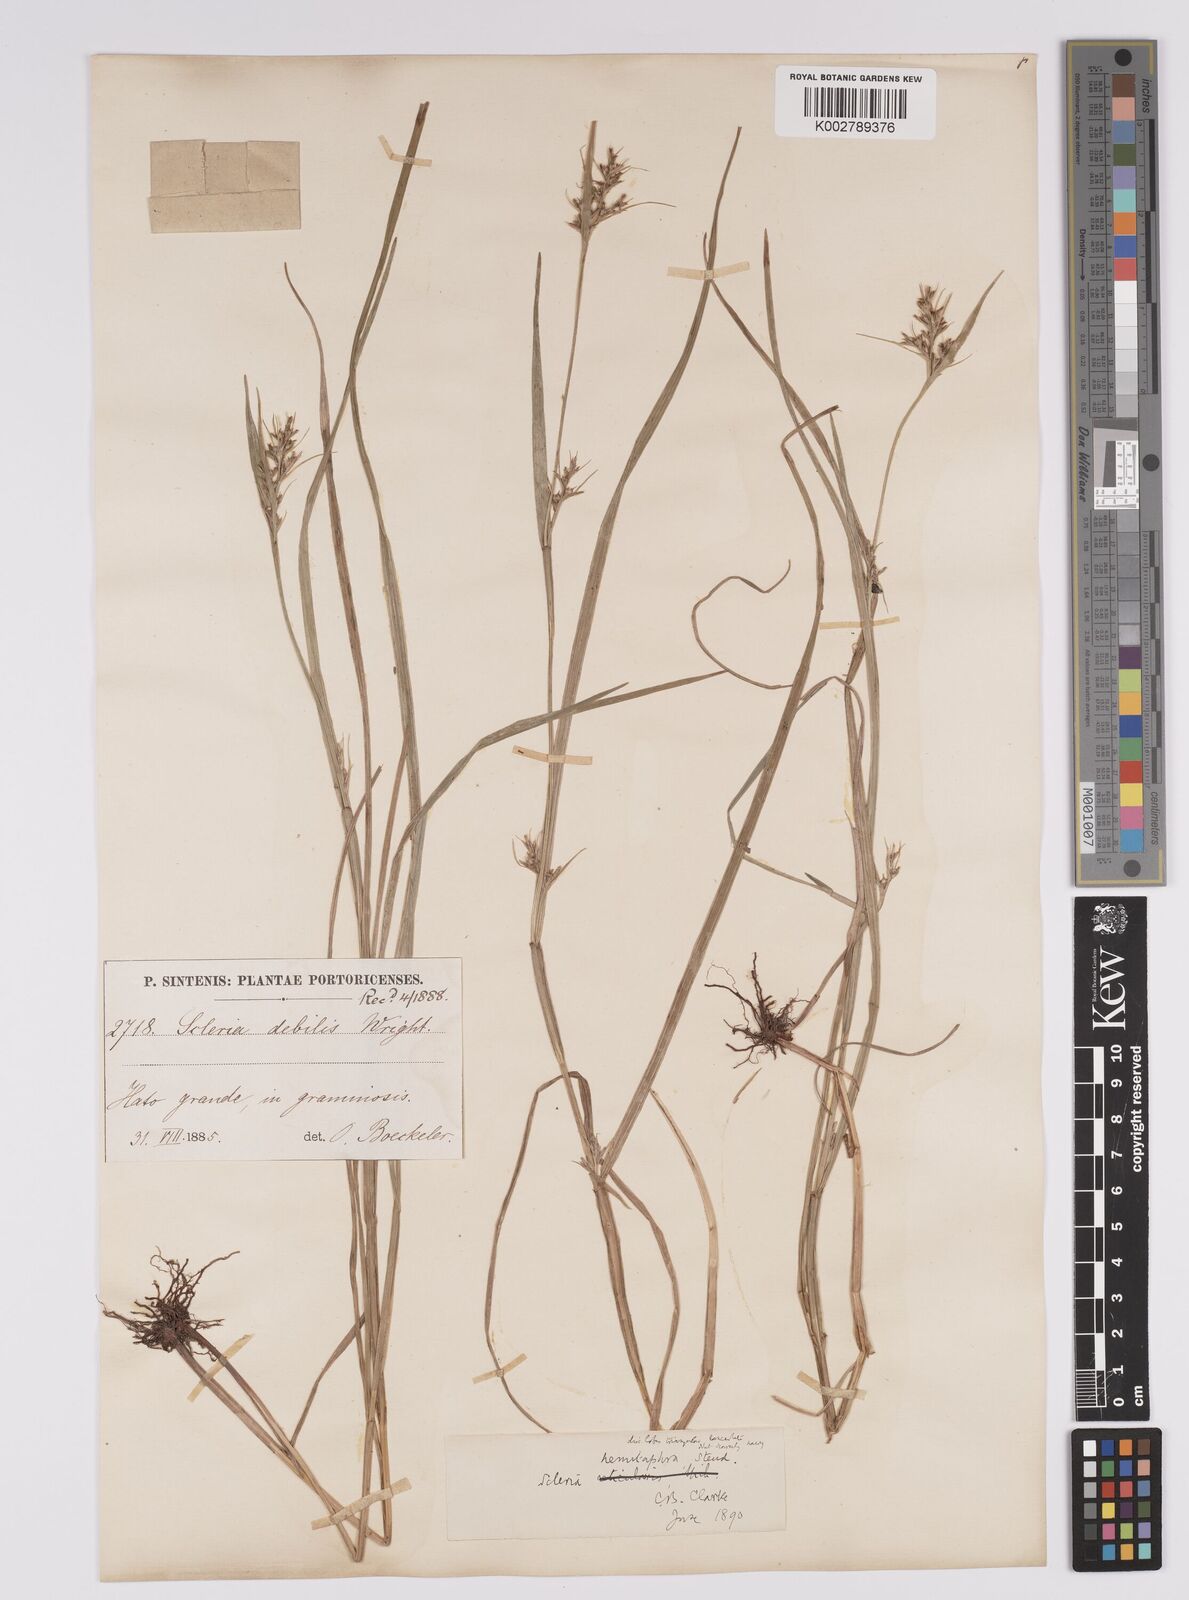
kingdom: Plantae
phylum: Tracheophyta
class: Liliopsida
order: Poales
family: Cyperaceae
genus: Scleria
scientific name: Scleria muehlenbergii
